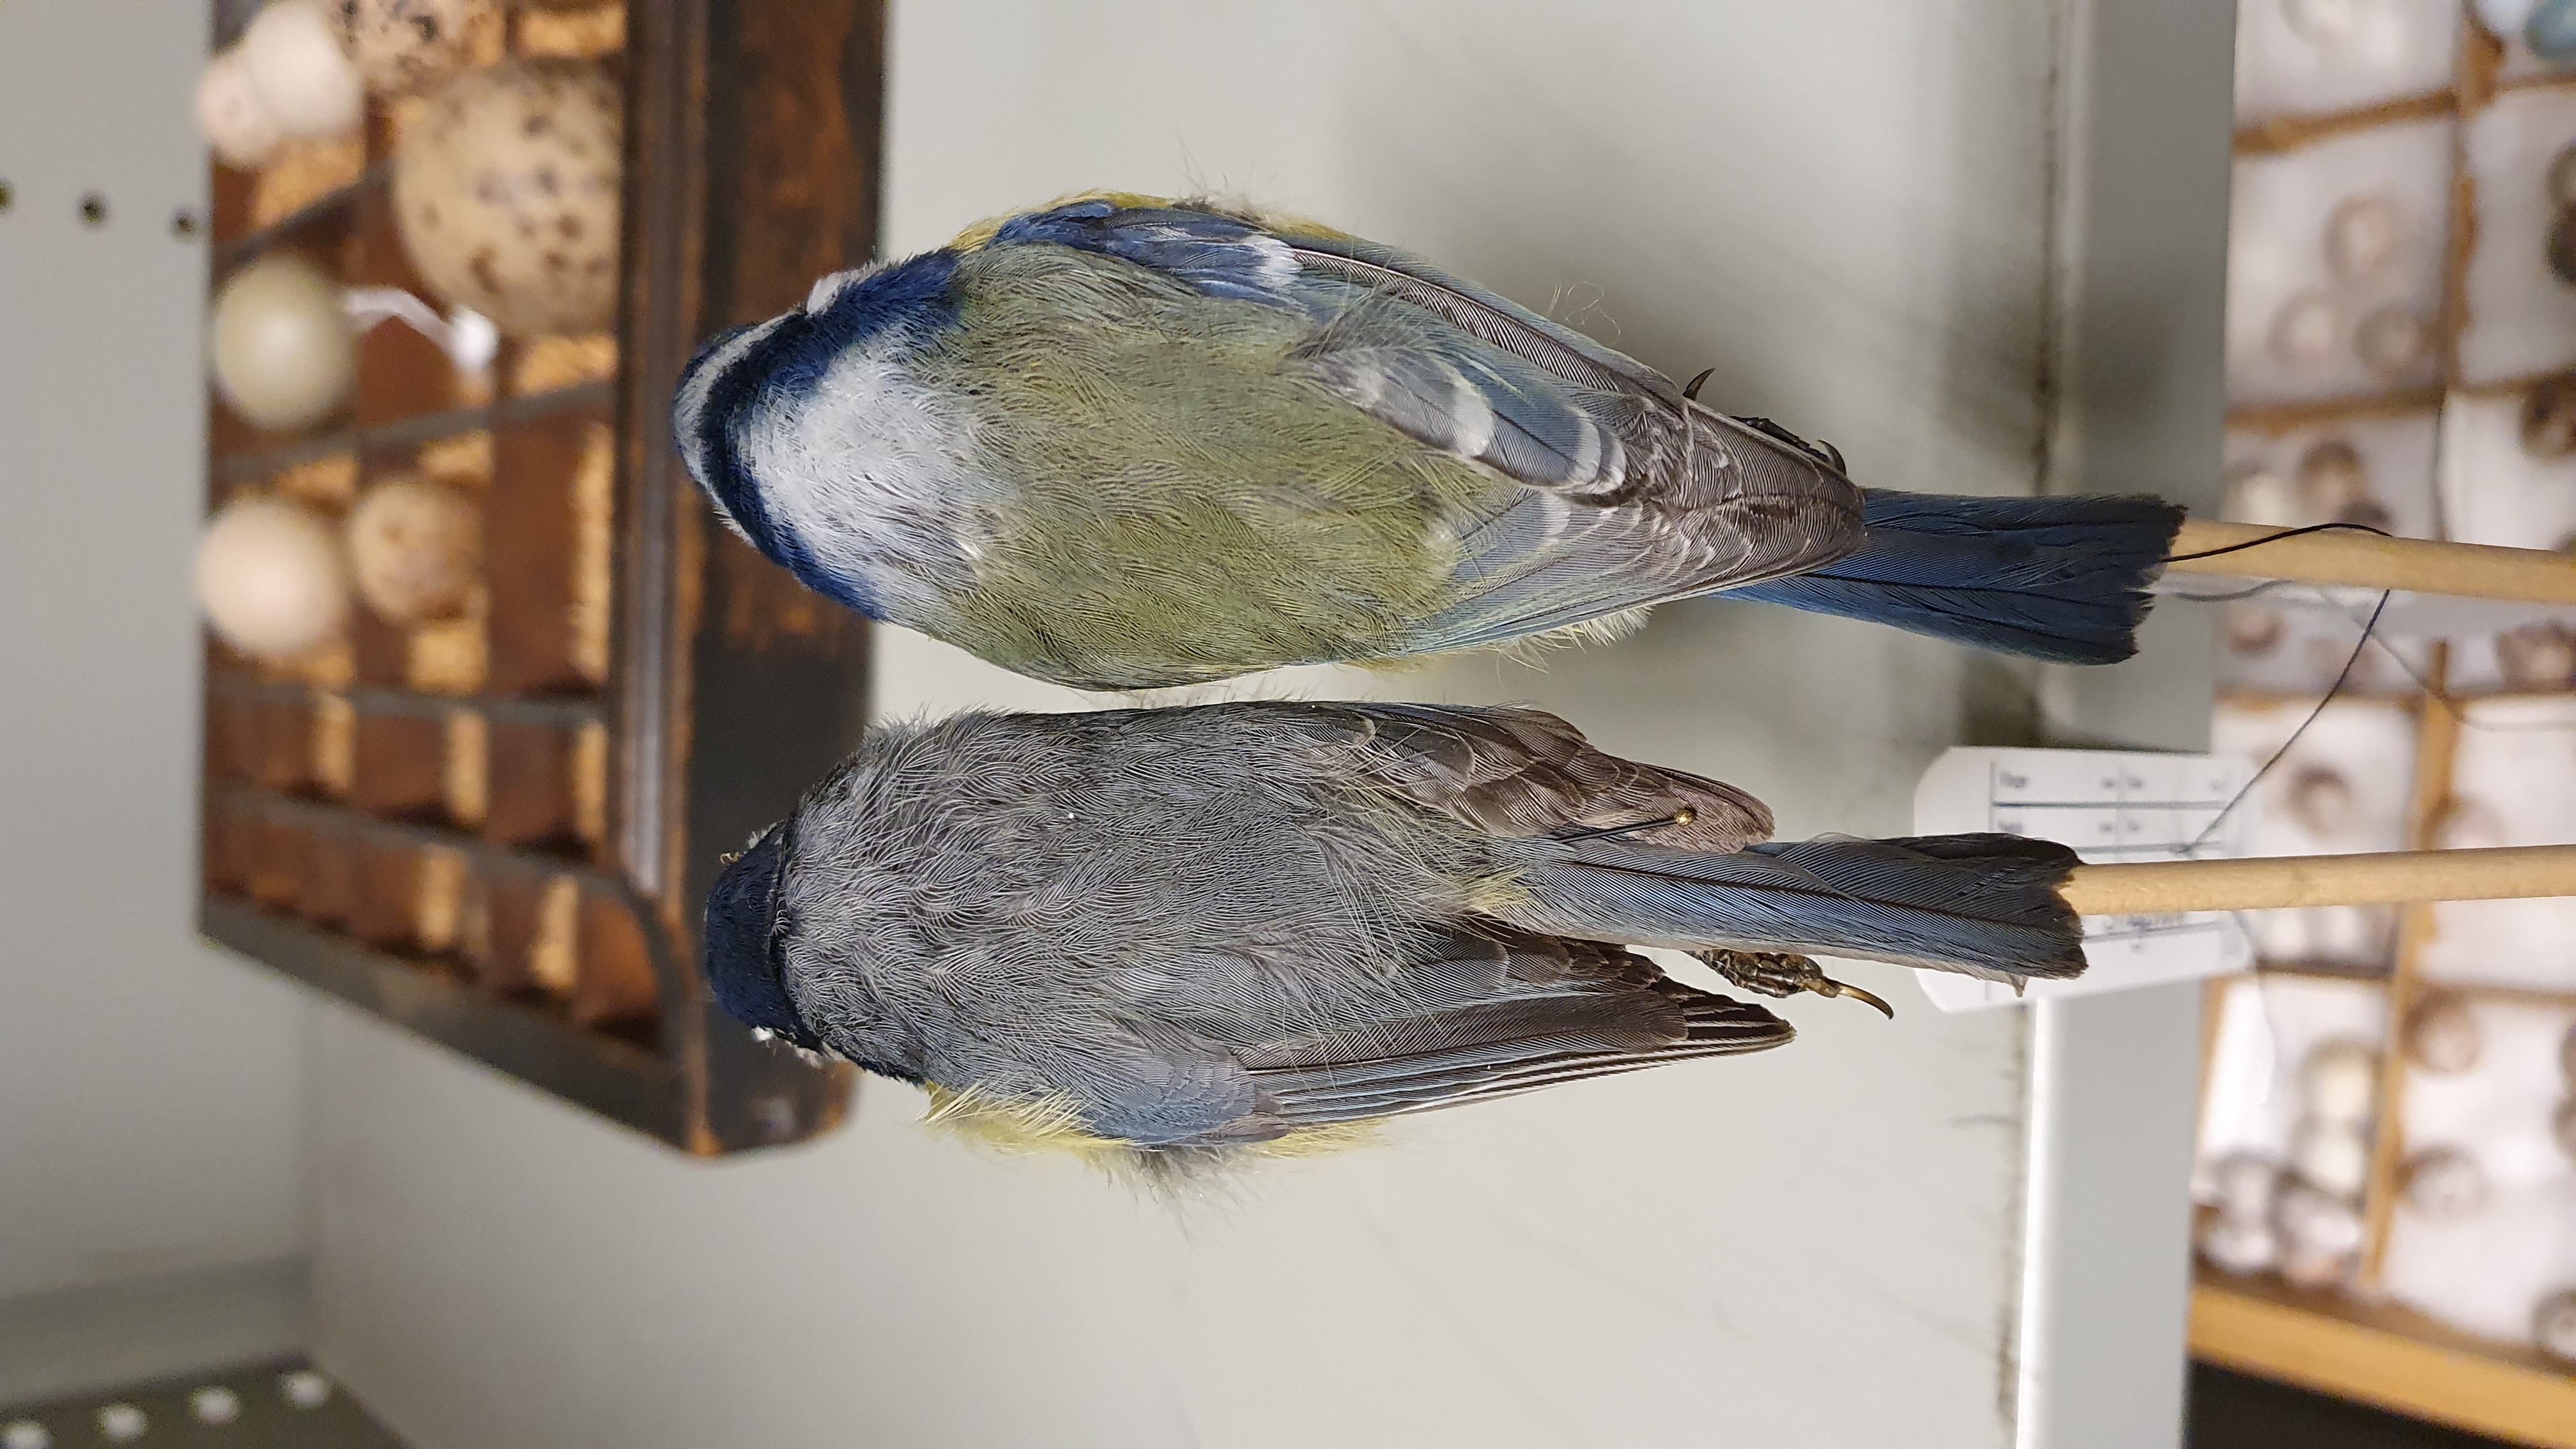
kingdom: Animalia
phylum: Chordata
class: Aves
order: Passeriformes
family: Paridae
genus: Cyanistes
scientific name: Cyanistes
